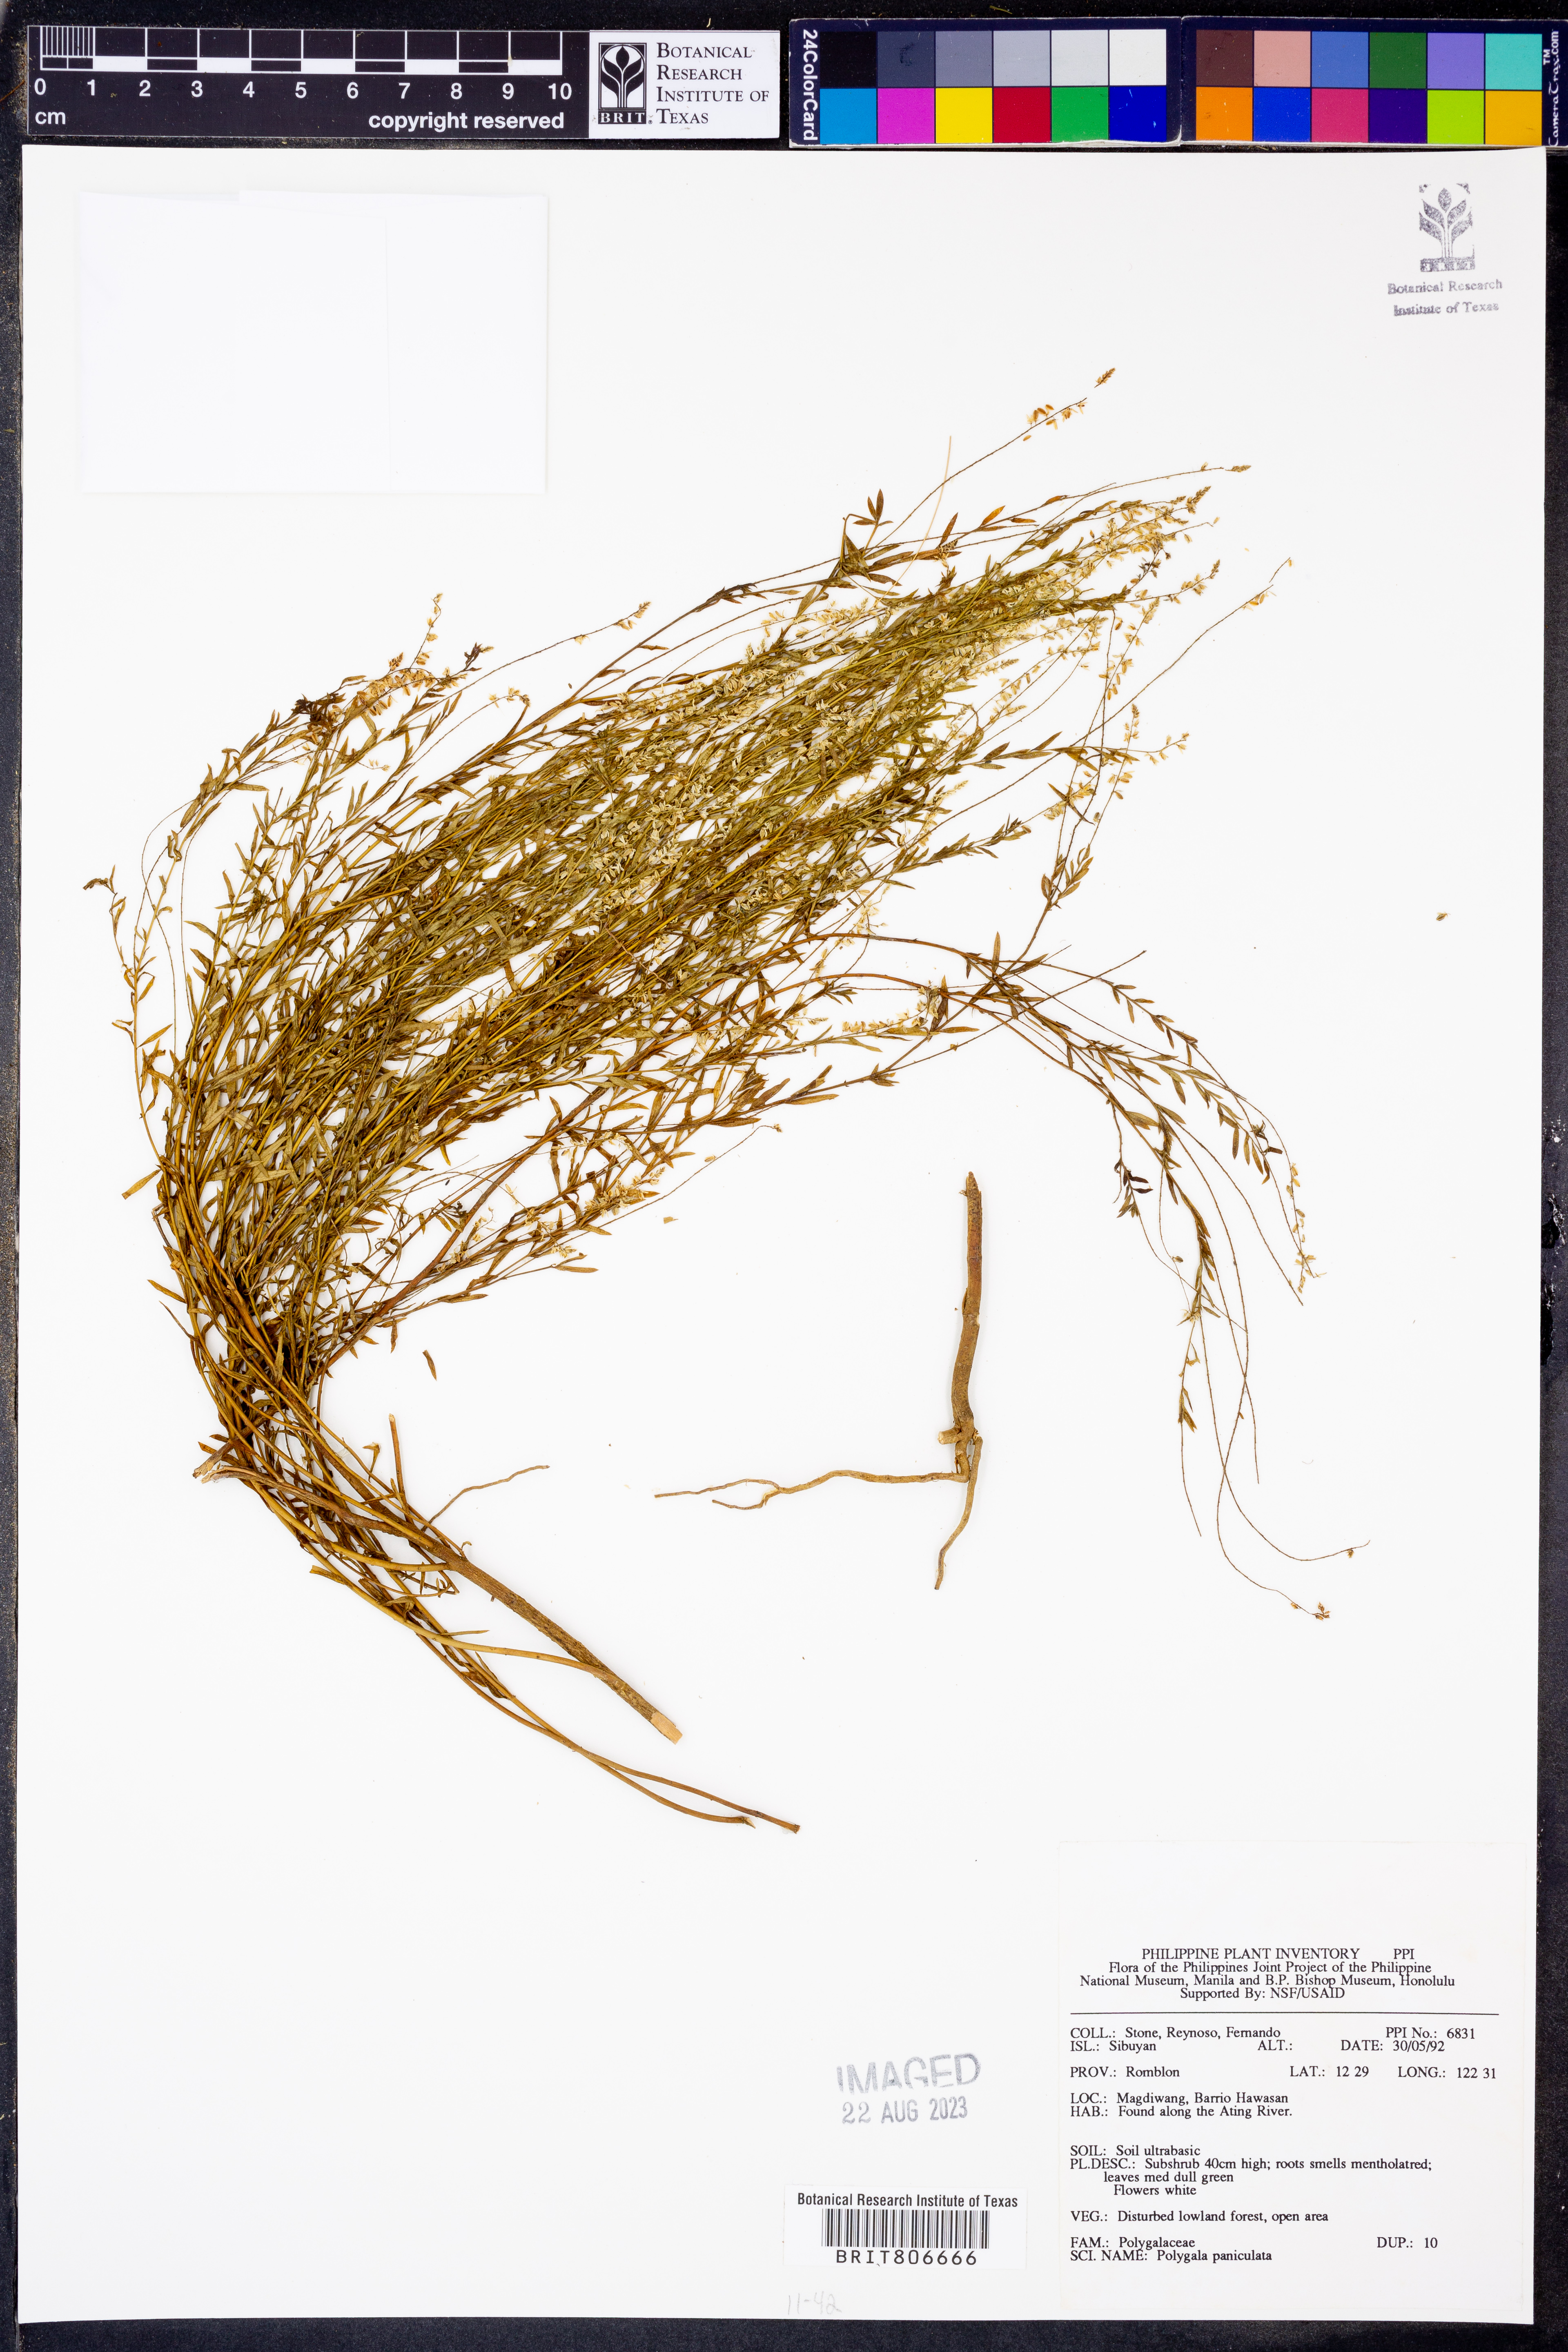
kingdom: Plantae
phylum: Tracheophyta
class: Magnoliopsida
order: Fabales
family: Polygalaceae
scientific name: Polygalaceae
